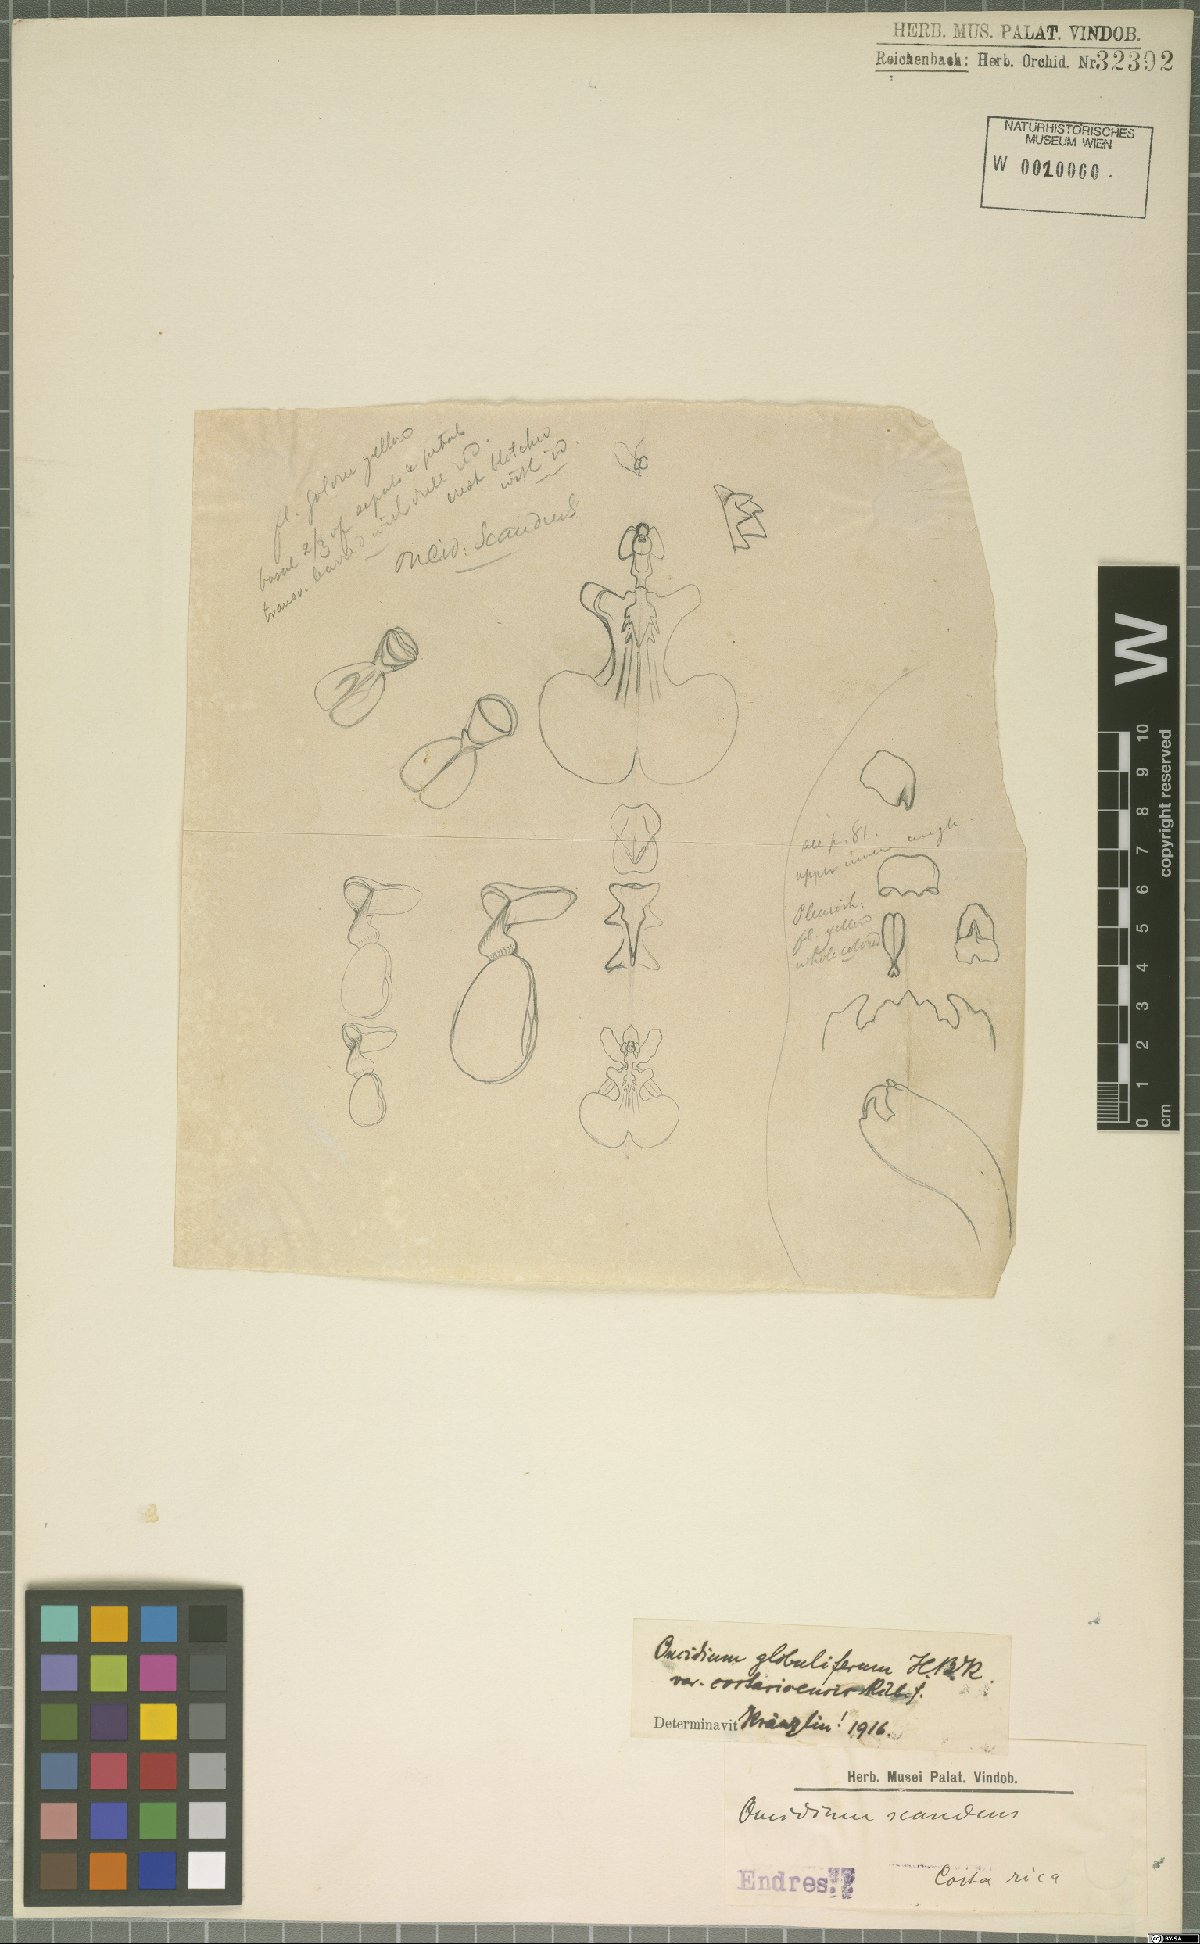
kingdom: Plantae
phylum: Tracheophyta
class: Liliopsida
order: Asparagales
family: Orchidaceae
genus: Otoglossum
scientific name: Otoglossum globuliferum
